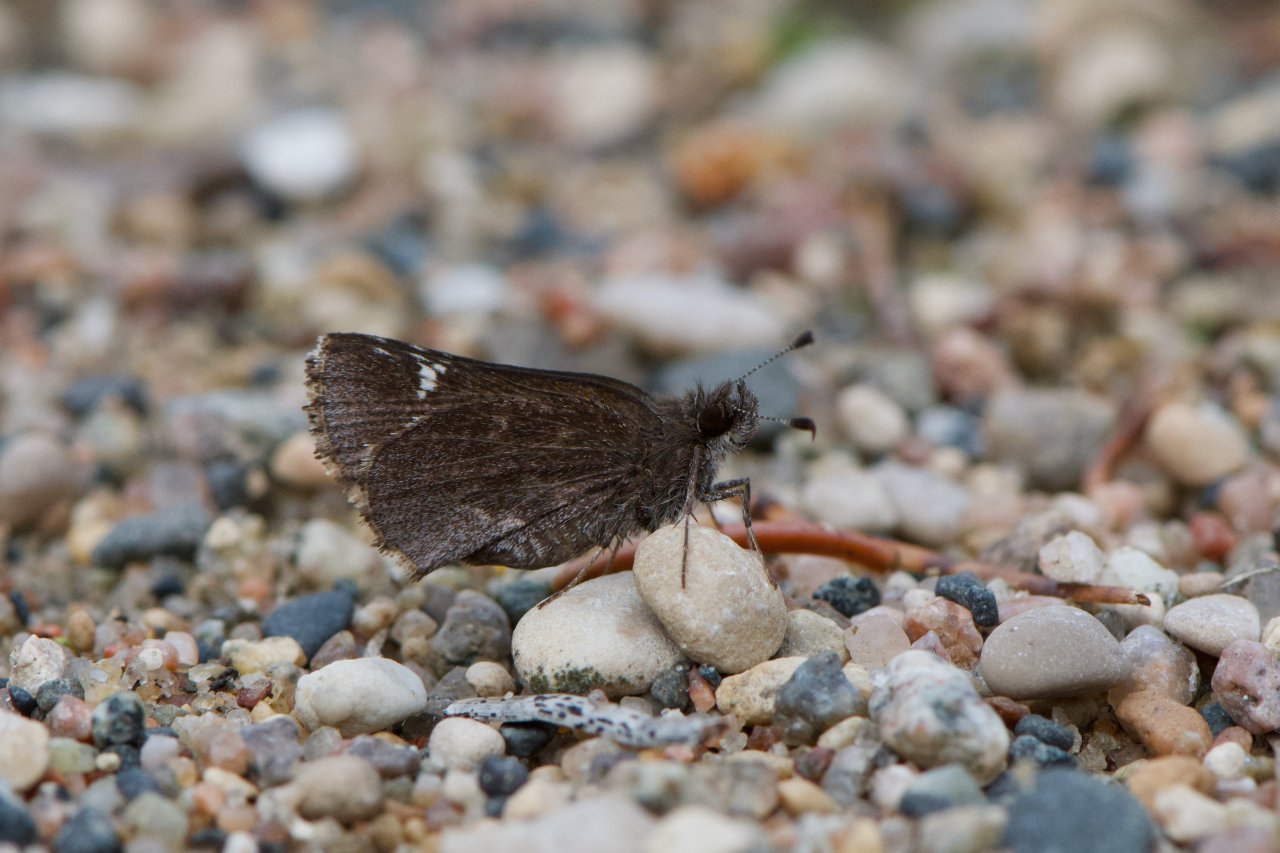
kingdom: Animalia
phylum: Arthropoda
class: Insecta
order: Lepidoptera
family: Hesperiidae
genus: Mastor
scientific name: Mastor vialis
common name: Common Roadside-Skipper
